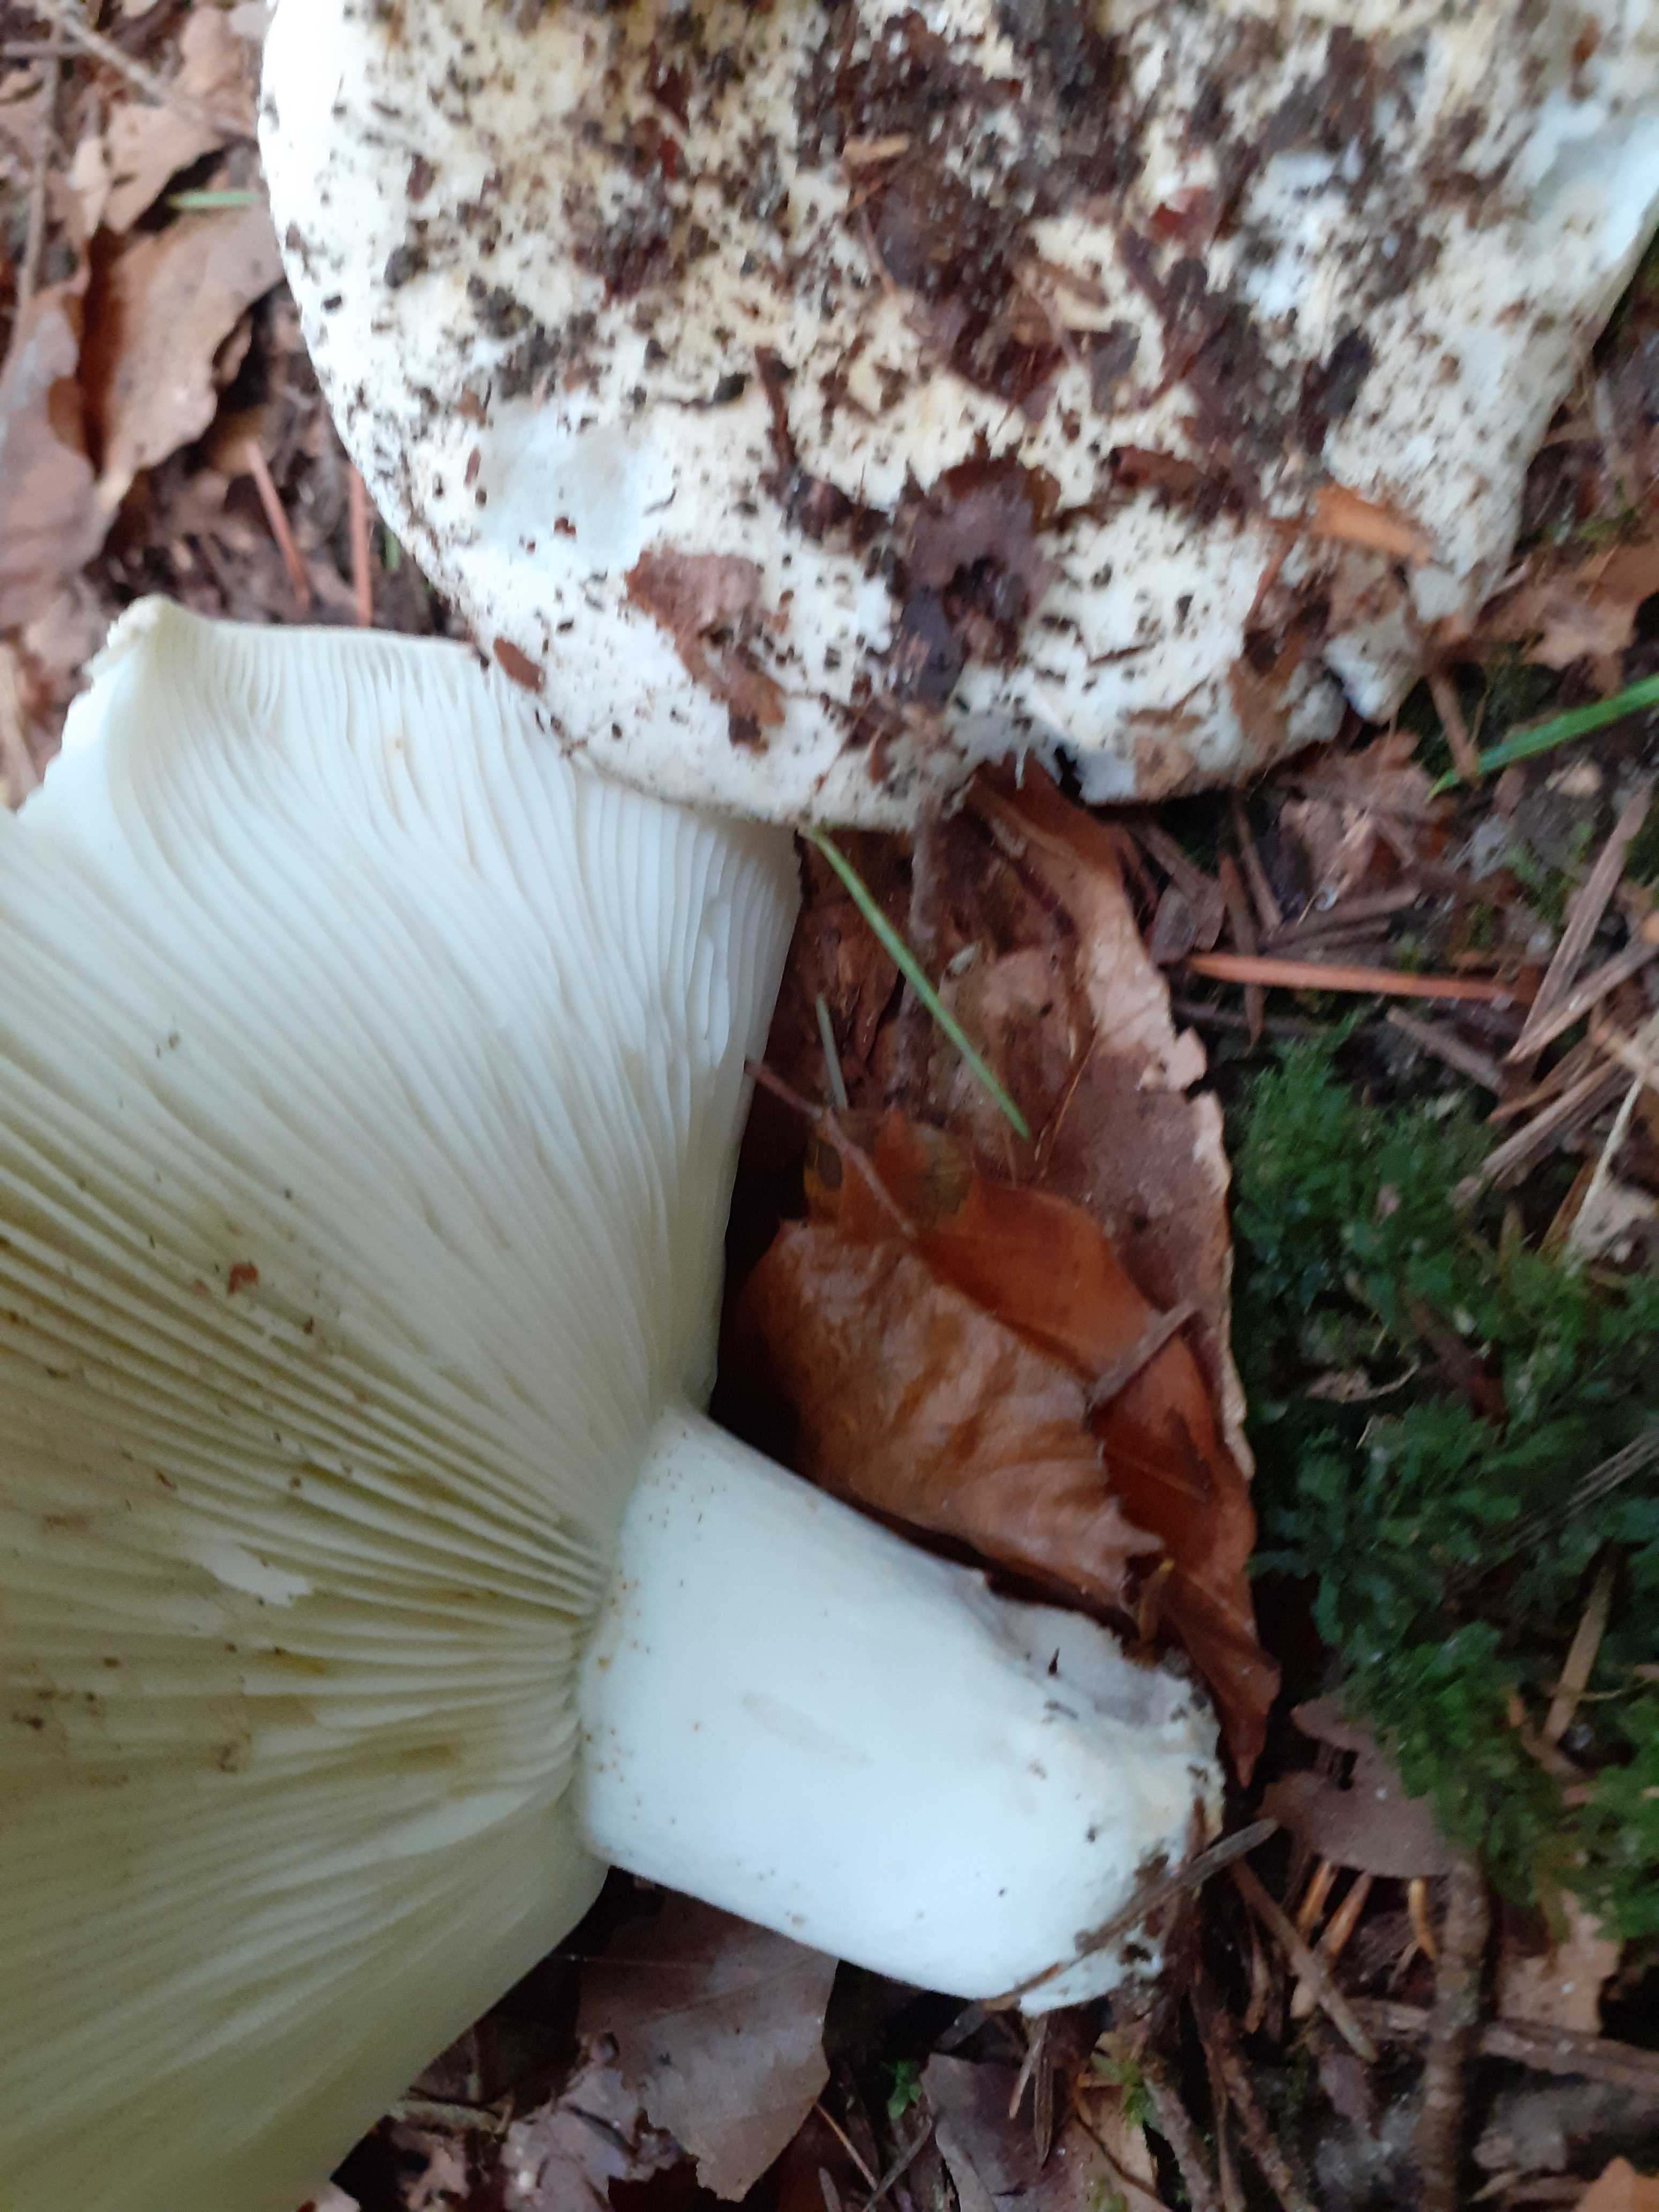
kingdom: Fungi
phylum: Basidiomycota
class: Agaricomycetes
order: Russulales
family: Russulaceae
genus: Russula
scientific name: Russula chloroides
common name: grønhalset tragt-skørhat
